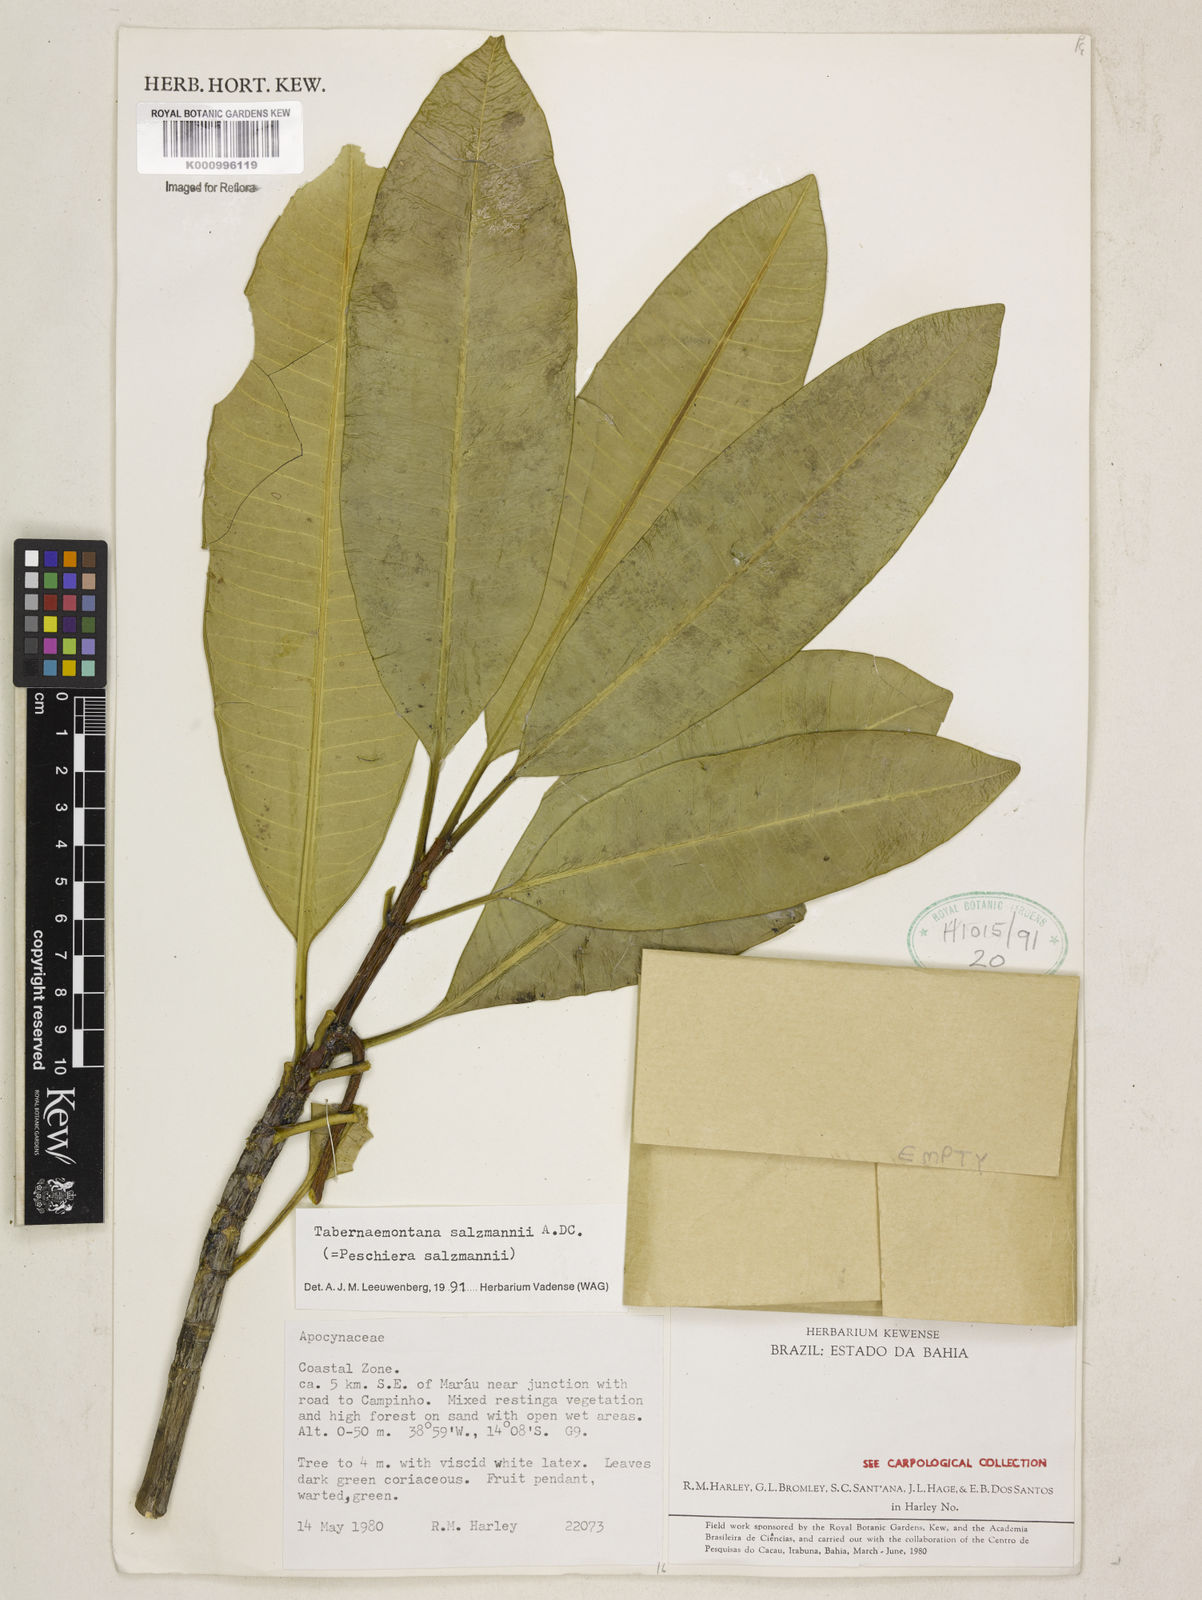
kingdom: Plantae
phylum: Tracheophyta
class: Magnoliopsida
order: Gentianales
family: Apocynaceae
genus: Tabernaemontana
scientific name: Tabernaemontana salzmannii
